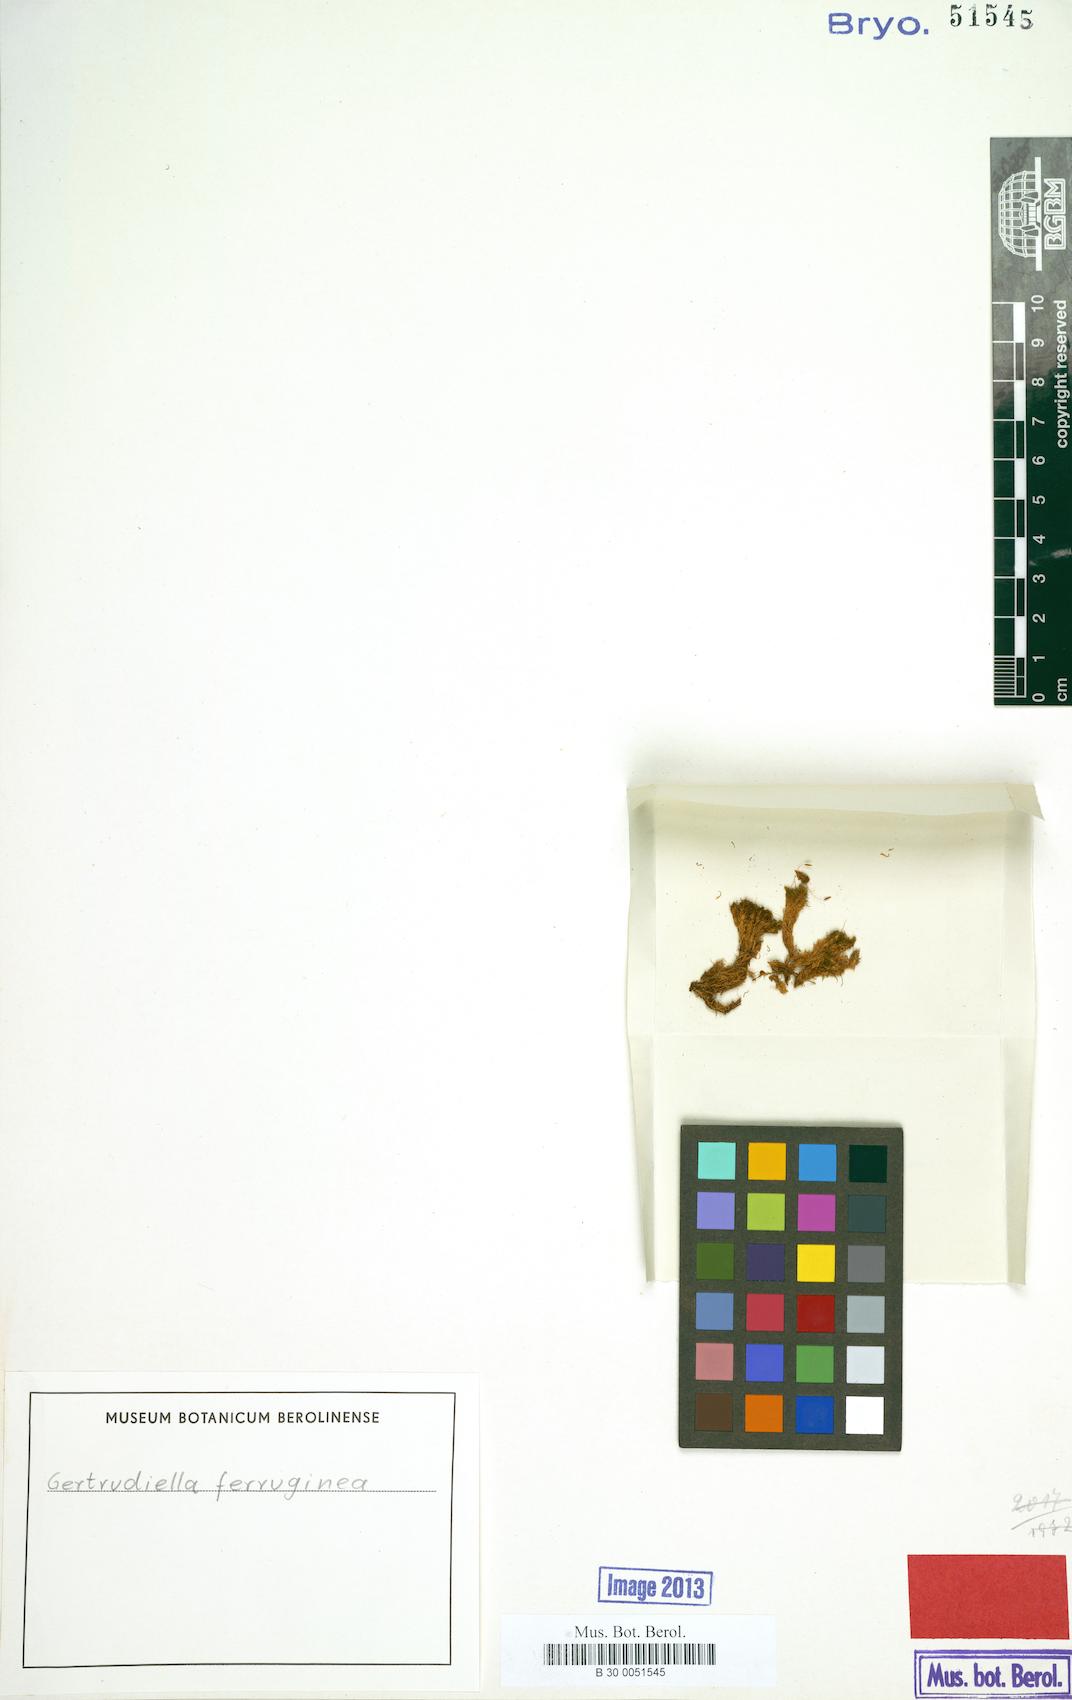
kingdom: Plantae
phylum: Bryophyta
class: Bryopsida
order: Pottiales
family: Pottiaceae
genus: Trichostomopsis
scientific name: Trichostomopsis ferruginea
